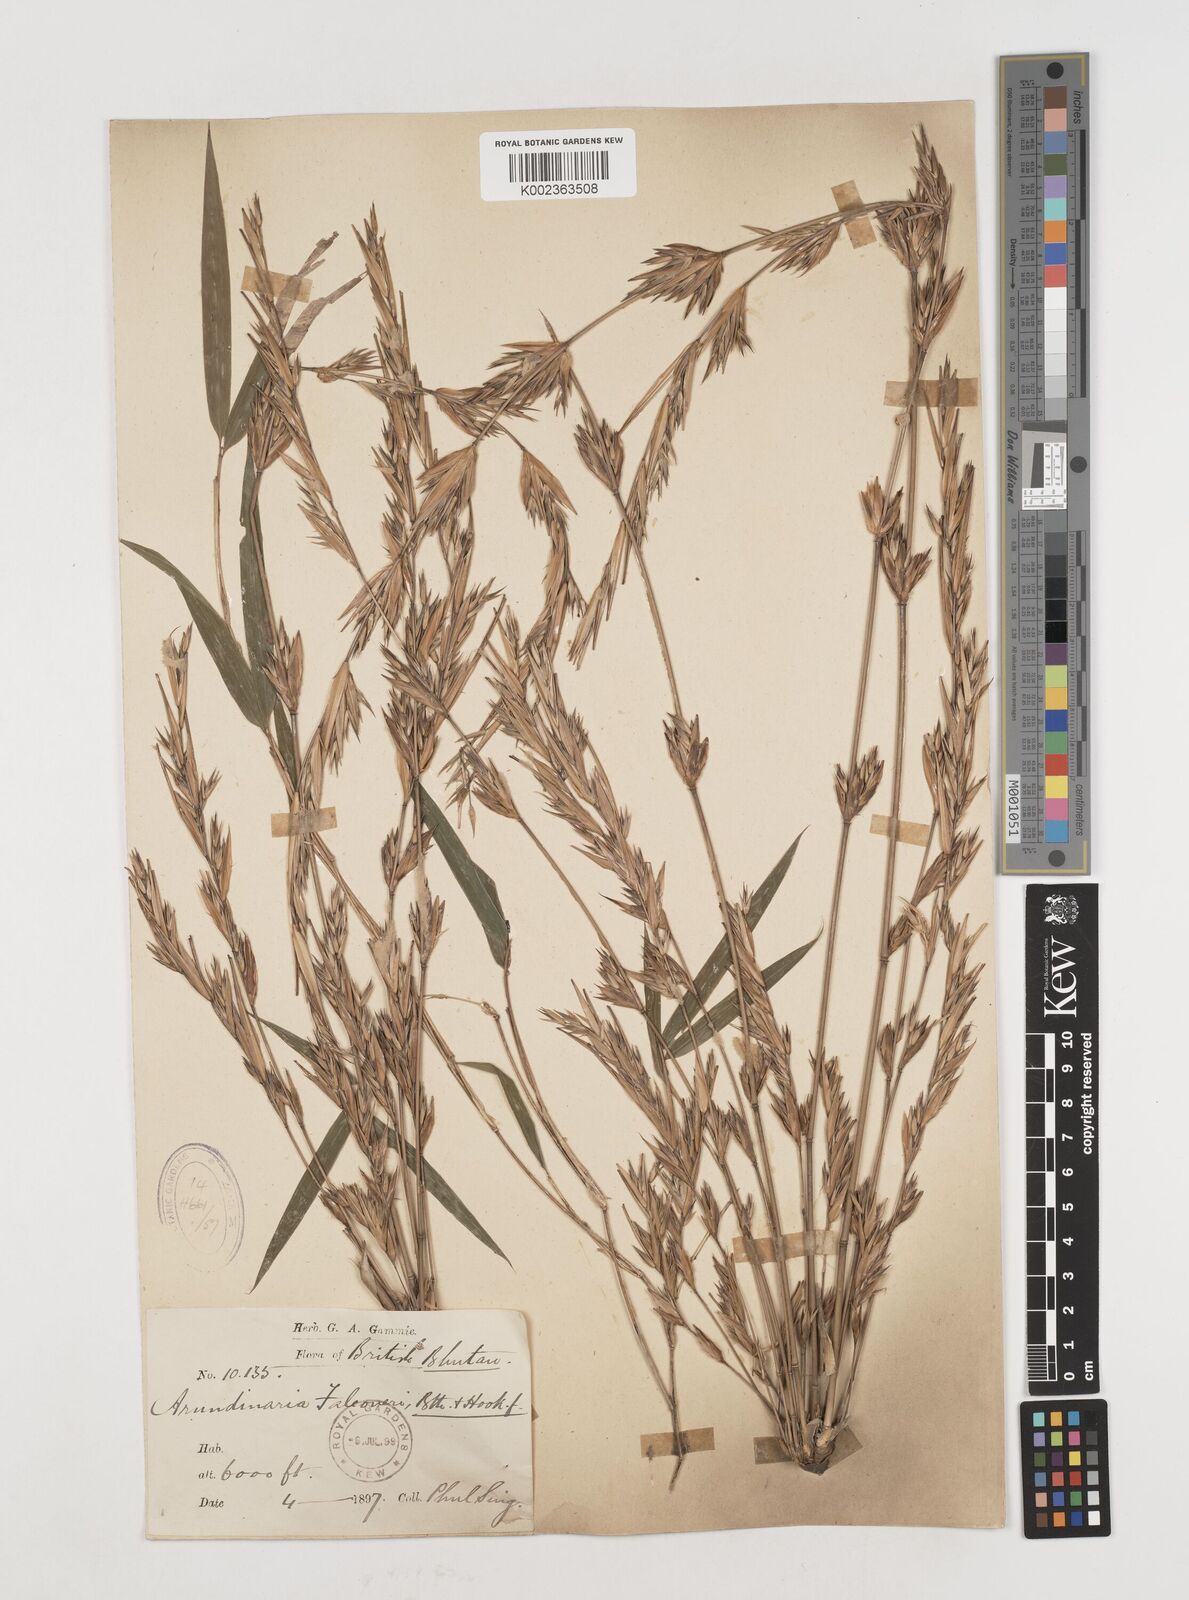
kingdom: Plantae
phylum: Tracheophyta
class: Liliopsida
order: Poales
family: Poaceae
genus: Himalayacalamus
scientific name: Himalayacalamus falconeri
